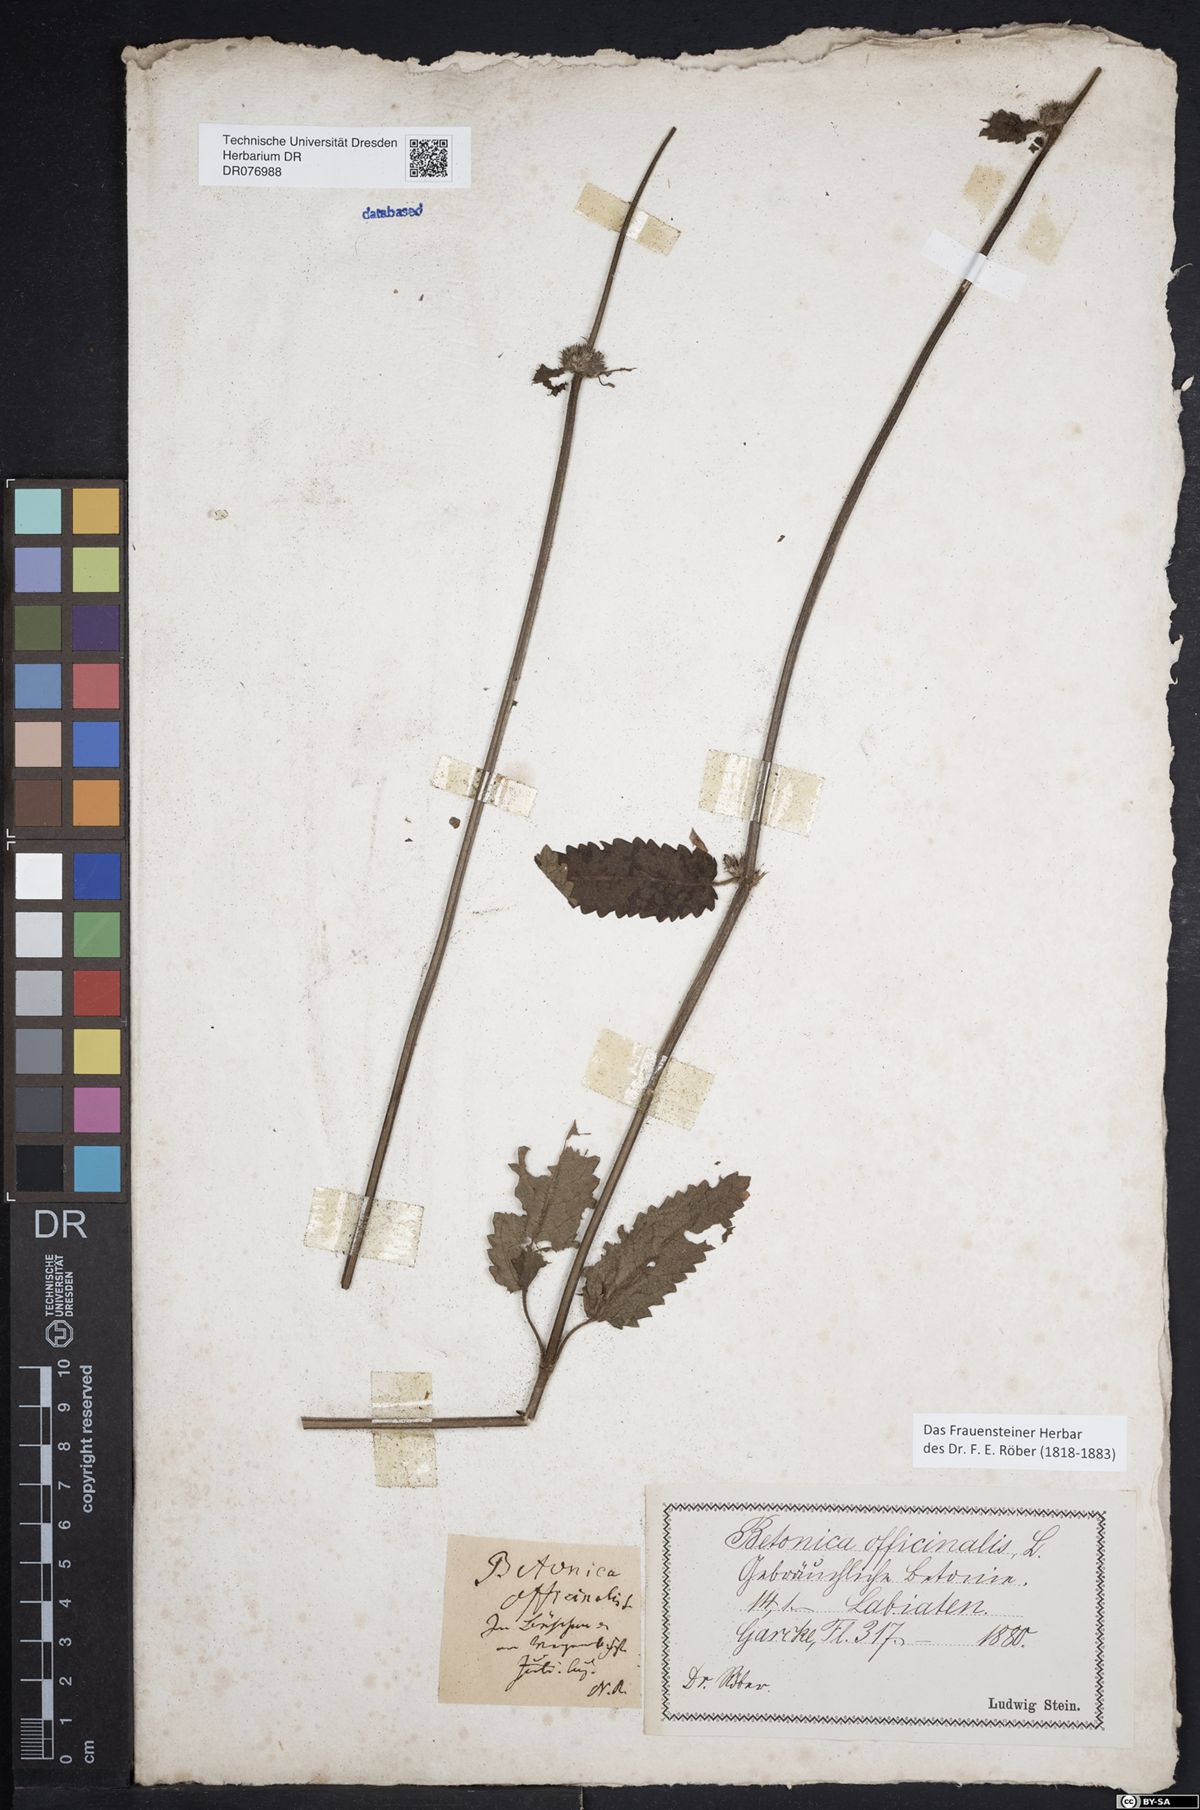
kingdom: Plantae
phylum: Tracheophyta
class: Magnoliopsida
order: Lamiales
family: Lamiaceae
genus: Betonica
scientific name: Betonica officinalis
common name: Bishop's-wort
